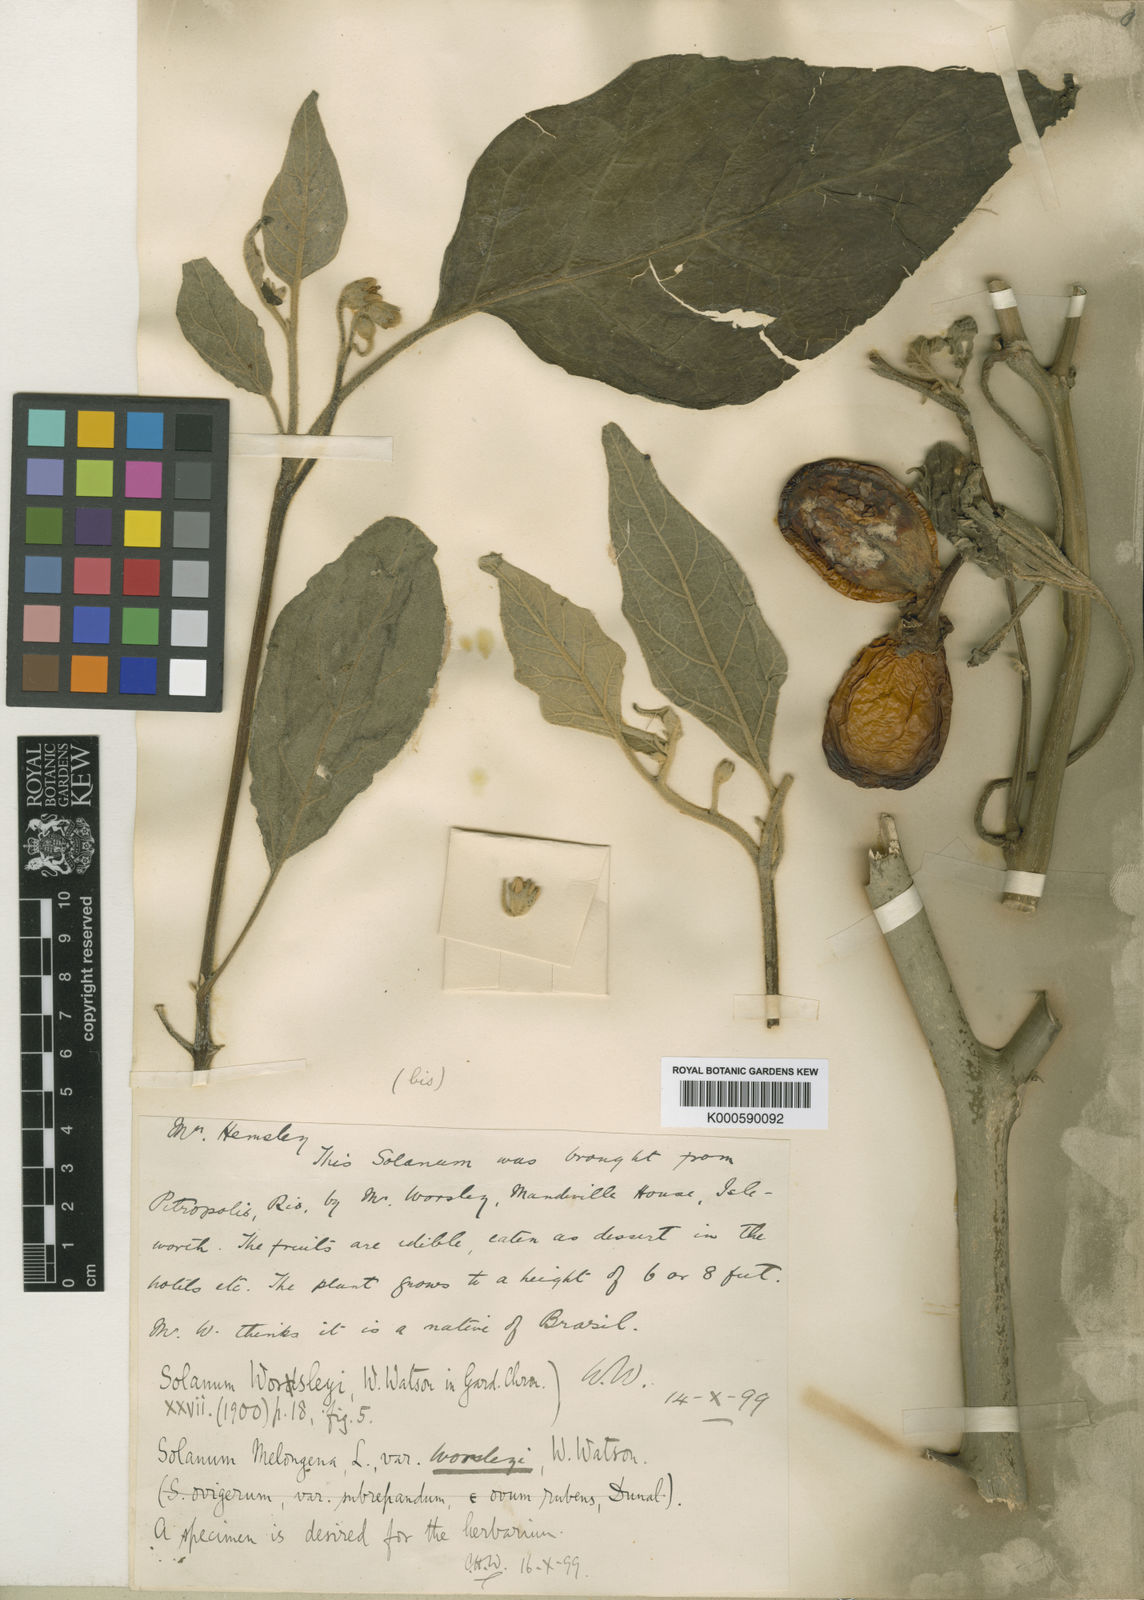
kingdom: Plantae
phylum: Tracheophyta
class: Magnoliopsida
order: Solanales
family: Solanaceae
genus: Solanum
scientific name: Solanum aethiopicum
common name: Gilo
